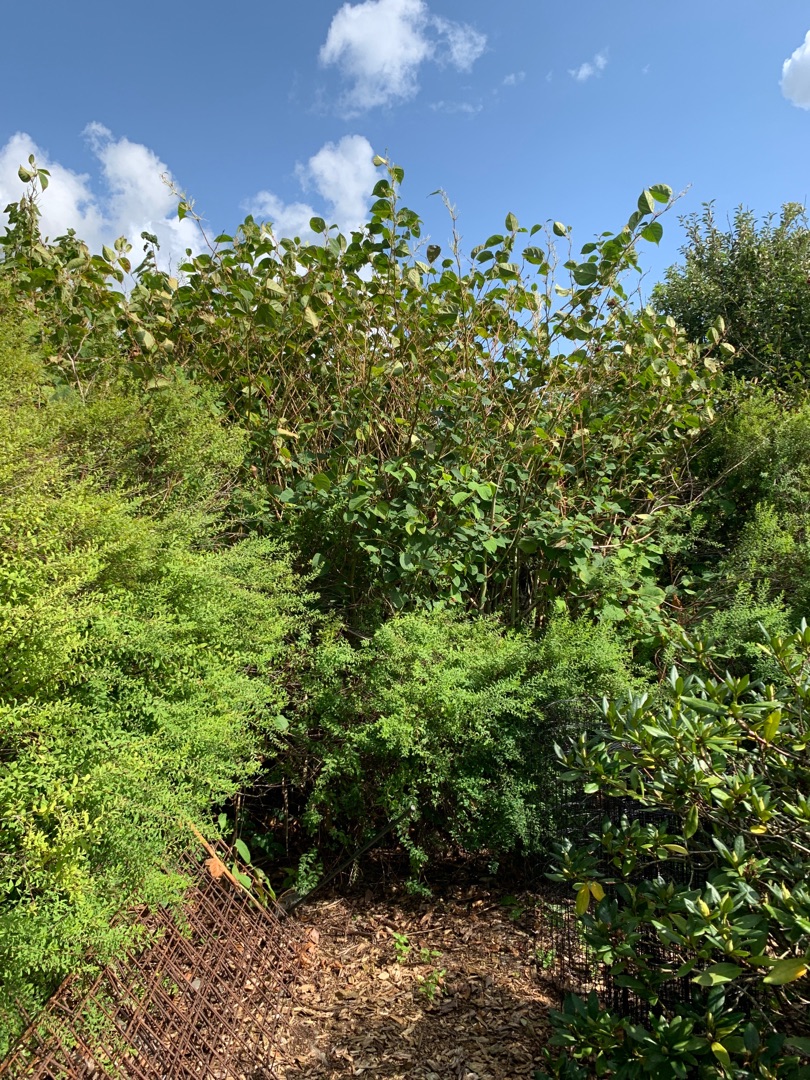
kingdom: Plantae
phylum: Tracheophyta
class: Magnoliopsida
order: Caryophyllales
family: Polygonaceae
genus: Reynoutria
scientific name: Reynoutria japonica
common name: Japan-pileurt
